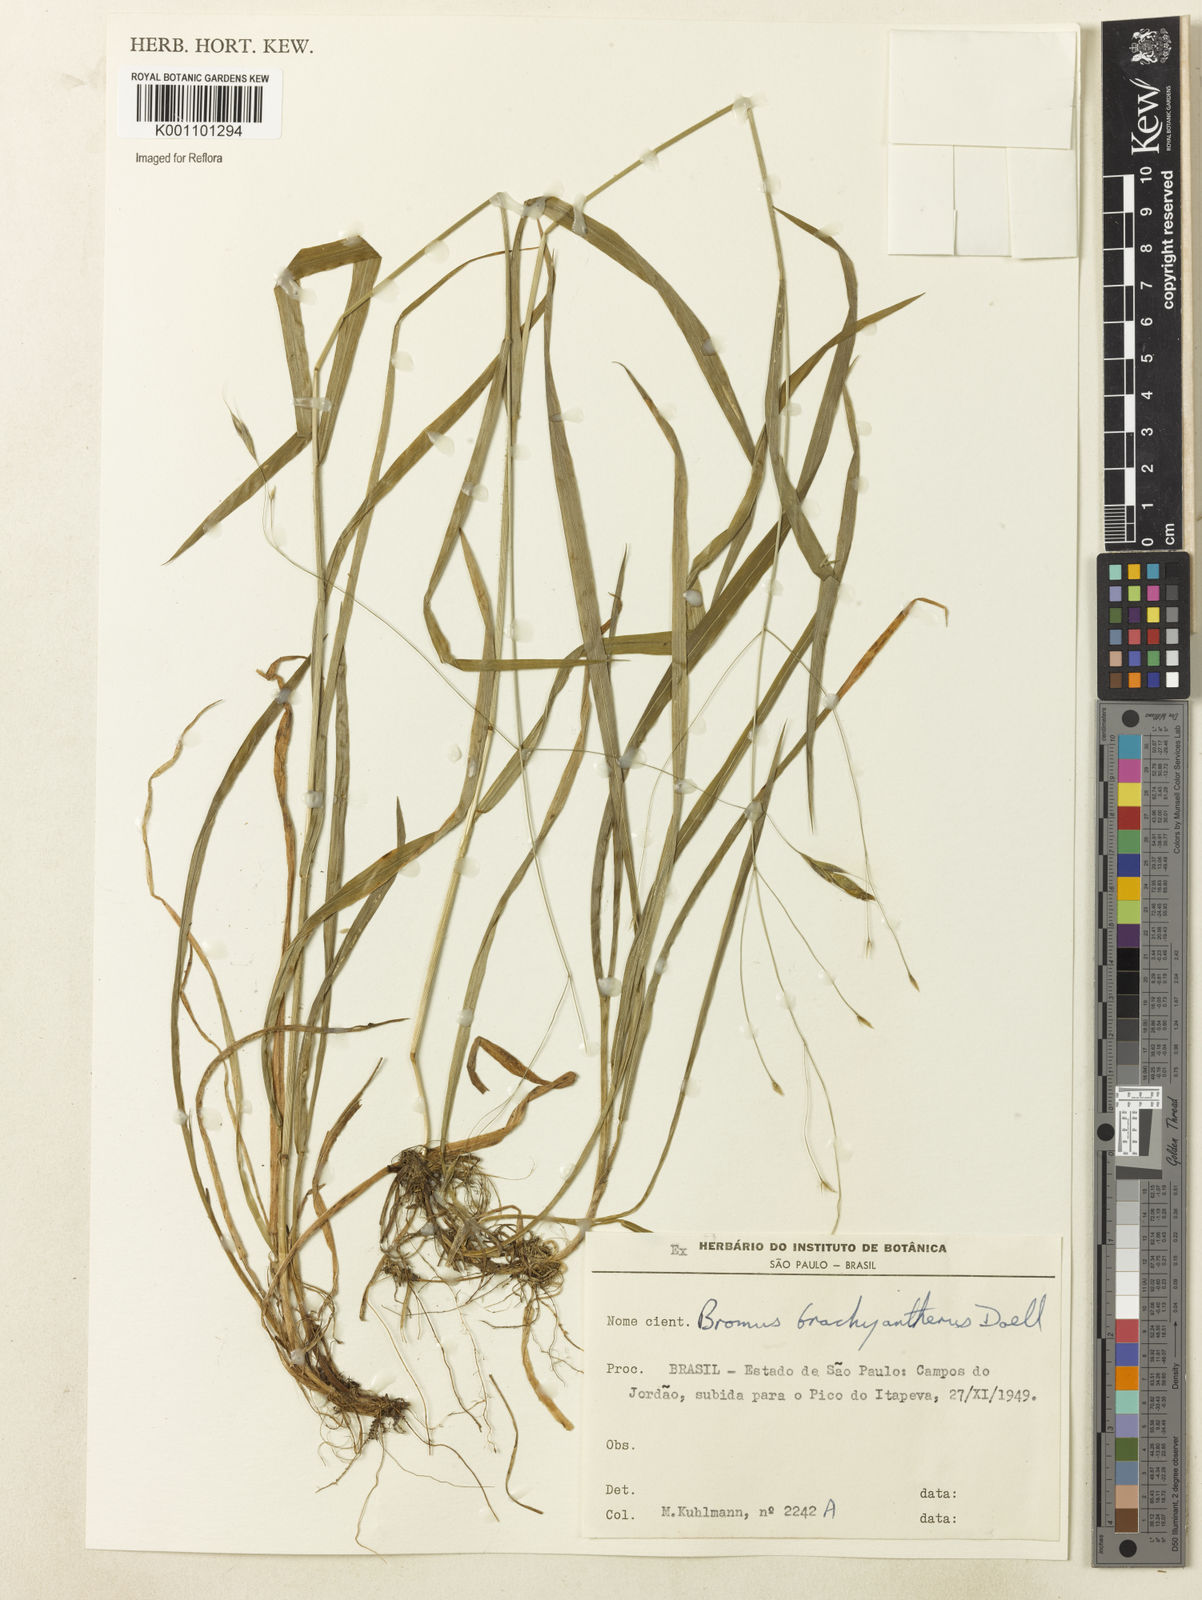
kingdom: Plantae
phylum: Tracheophyta
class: Liliopsida
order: Poales
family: Poaceae
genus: Bromus
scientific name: Bromus auleticus
